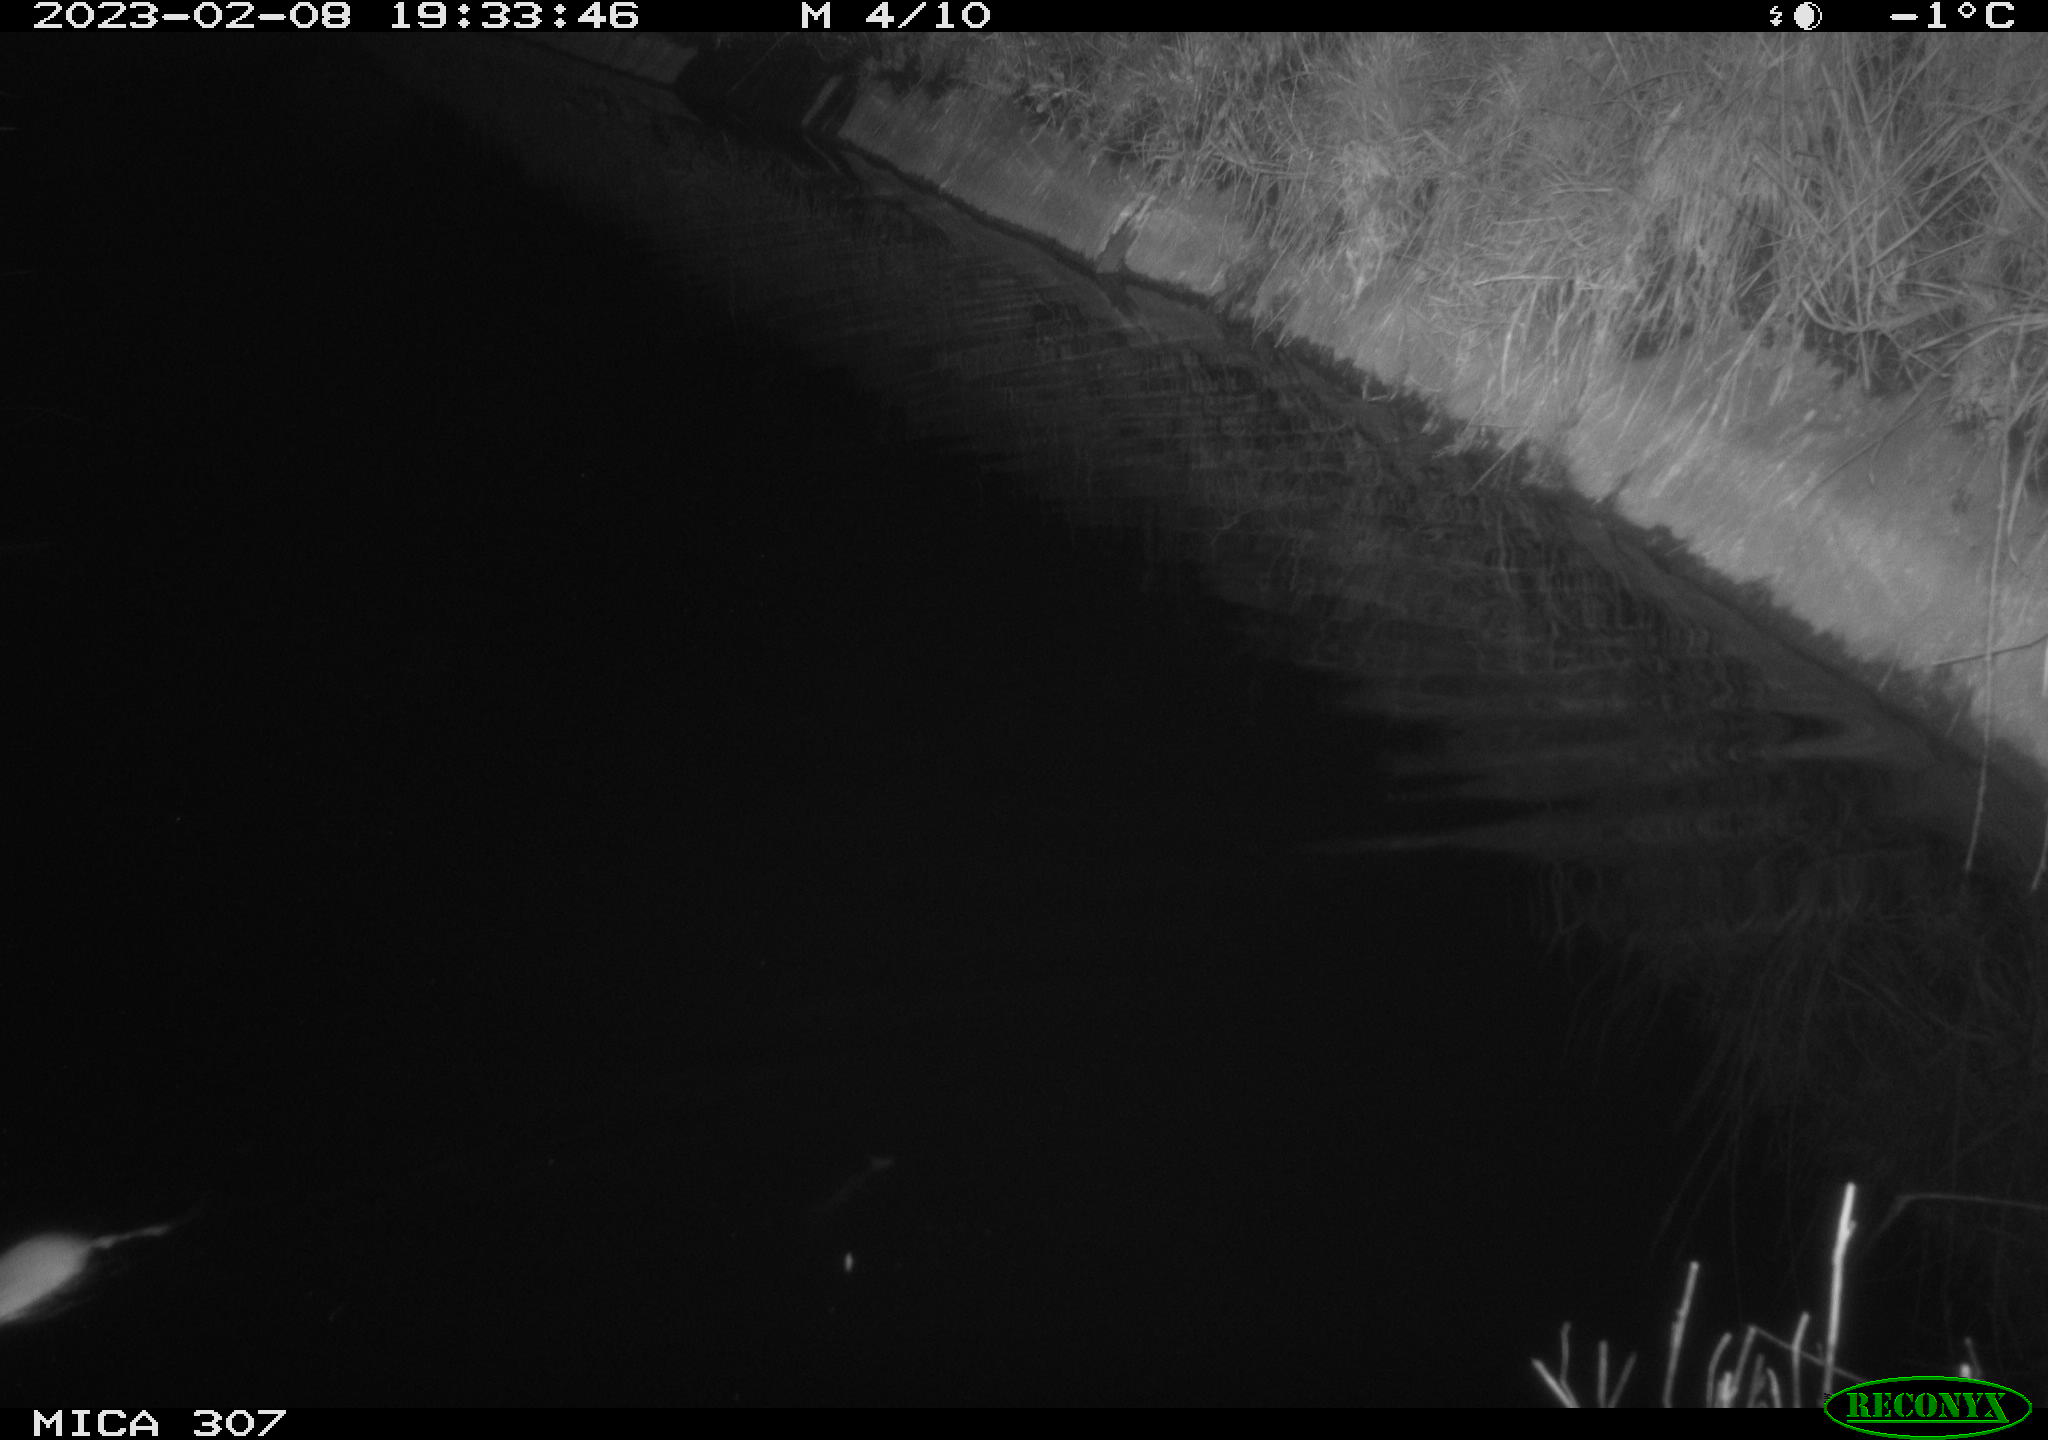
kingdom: Animalia
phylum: Chordata
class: Mammalia
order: Rodentia
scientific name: Rodentia
